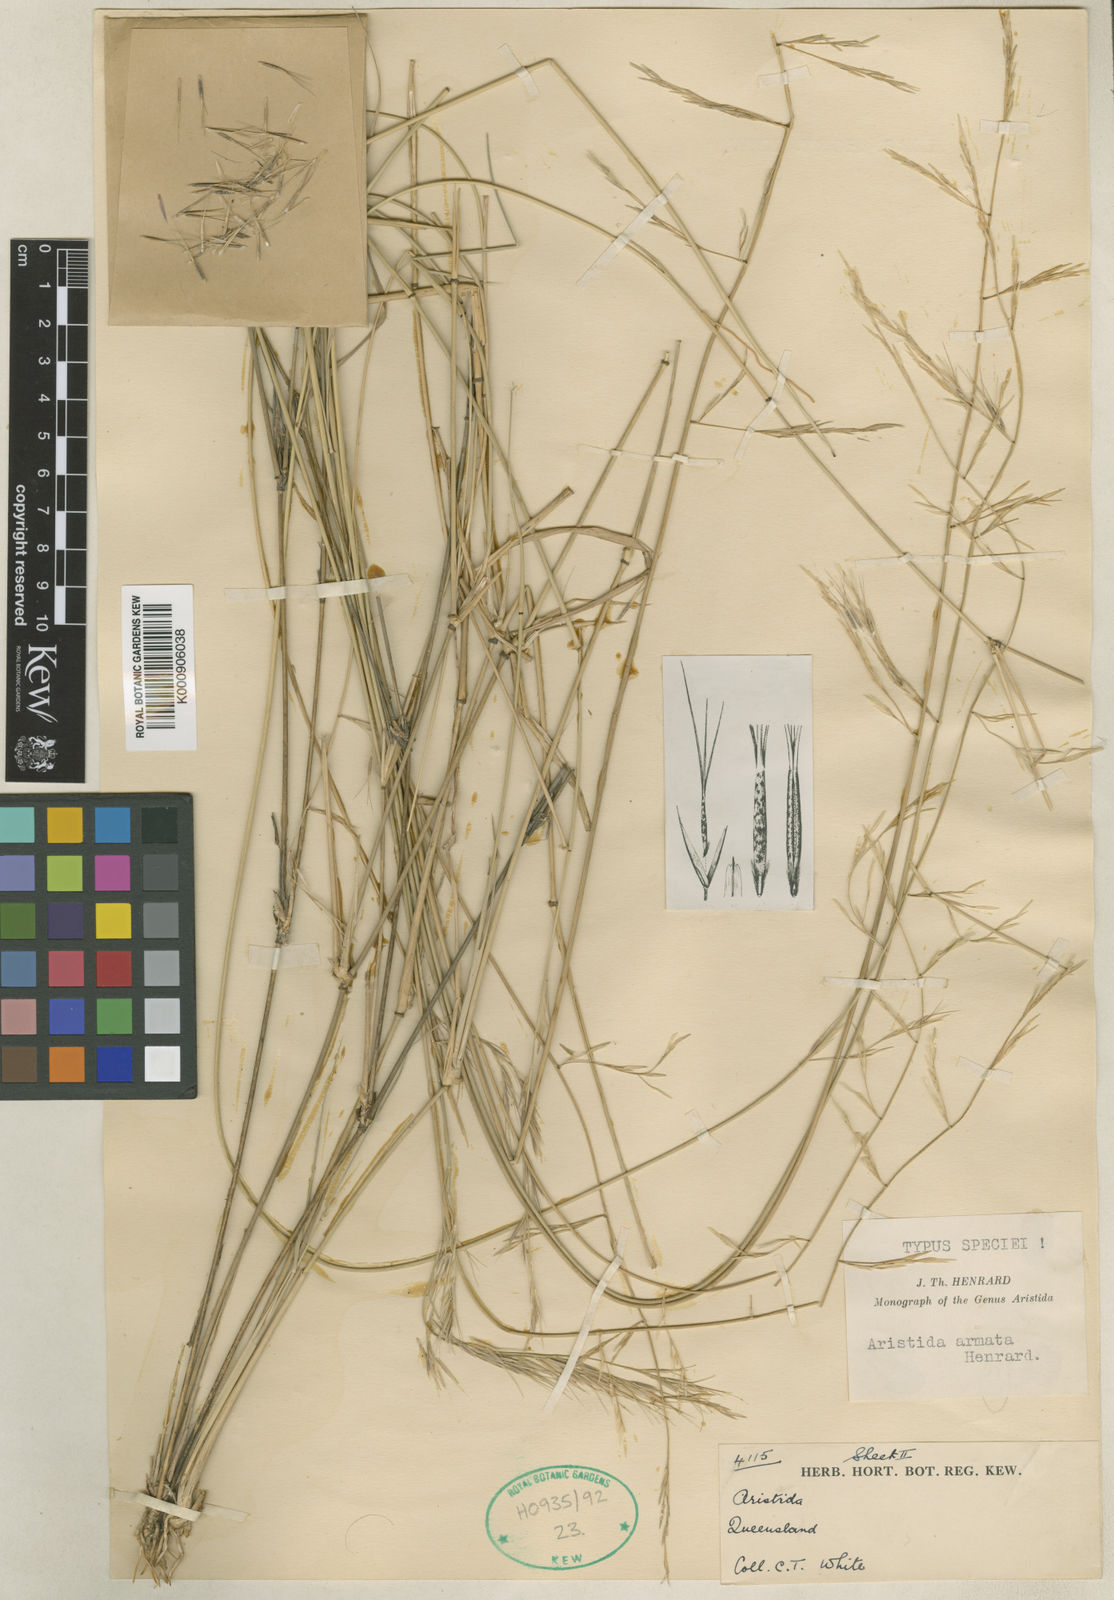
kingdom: Plantae
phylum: Tracheophyta
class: Liliopsida
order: Poales
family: Poaceae
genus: Aristida
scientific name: Aristida calycina
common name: Dark wire grass
